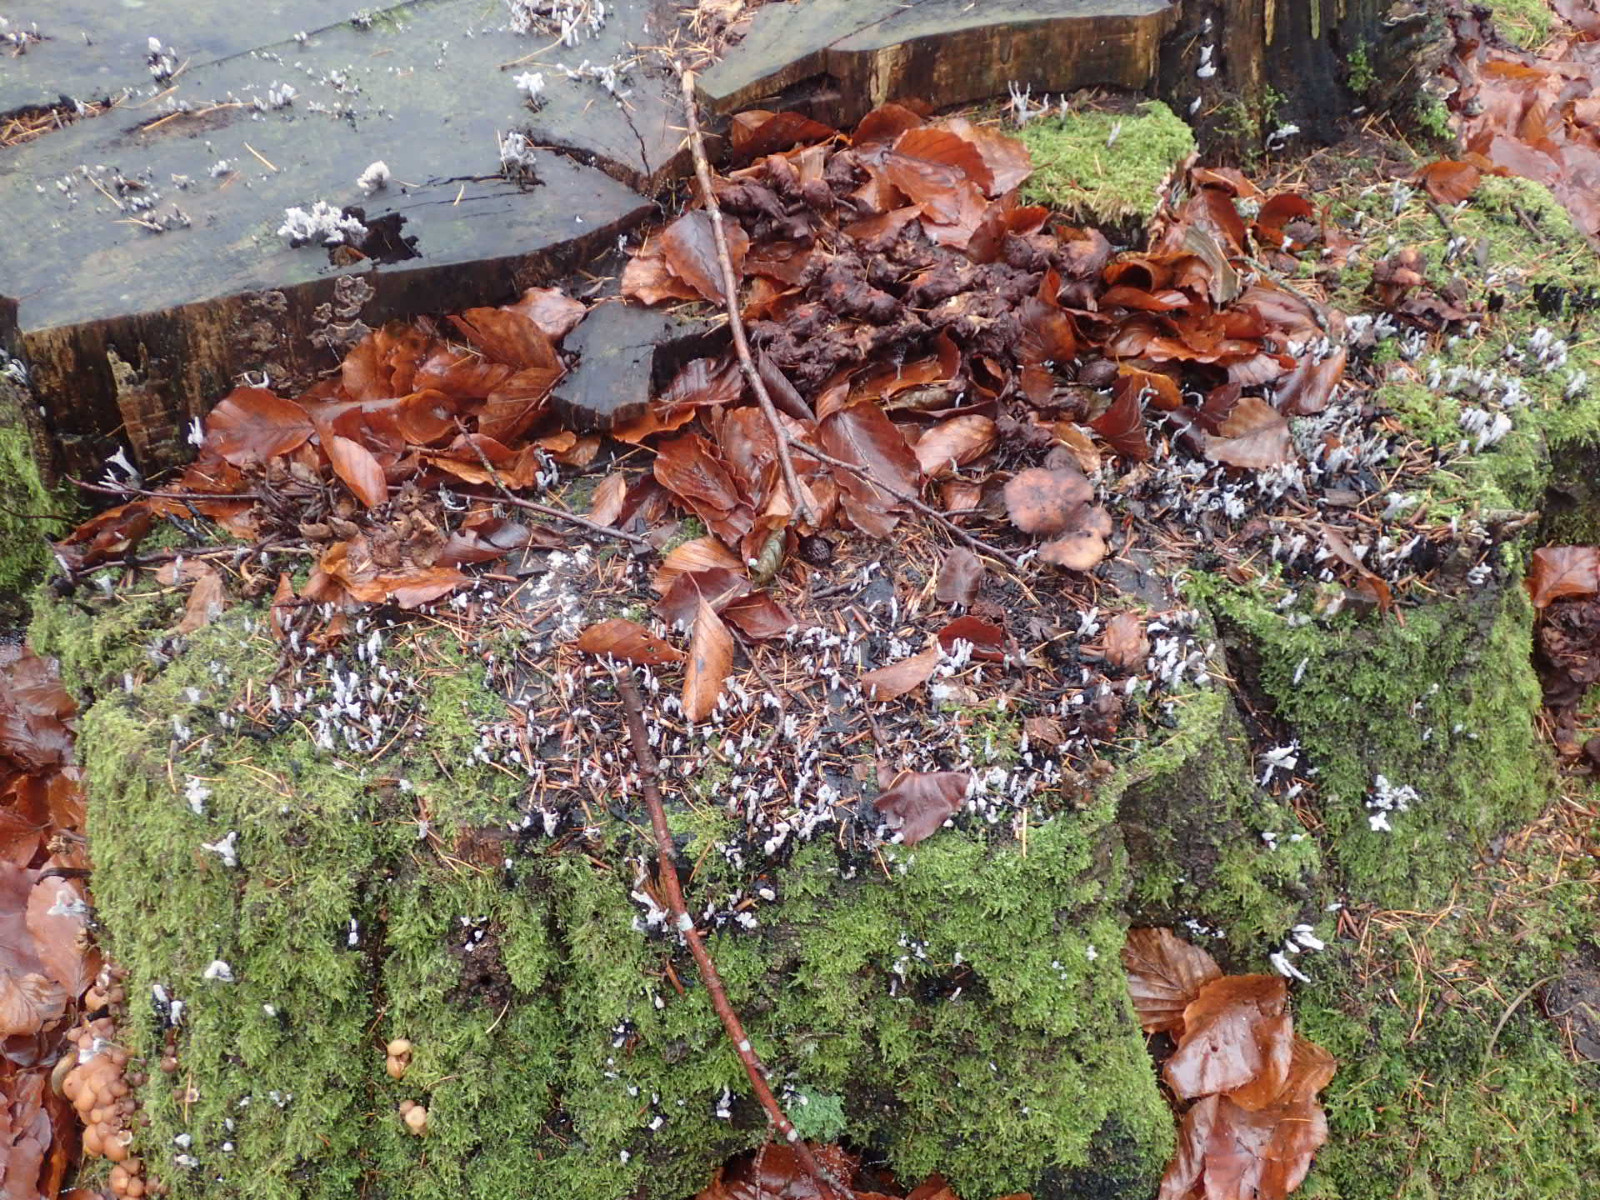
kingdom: Fungi
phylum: Ascomycota
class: Sordariomycetes
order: Xylariales
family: Xylariaceae
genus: Xylaria
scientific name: Xylaria hypoxylon
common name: grenet stødsvamp
